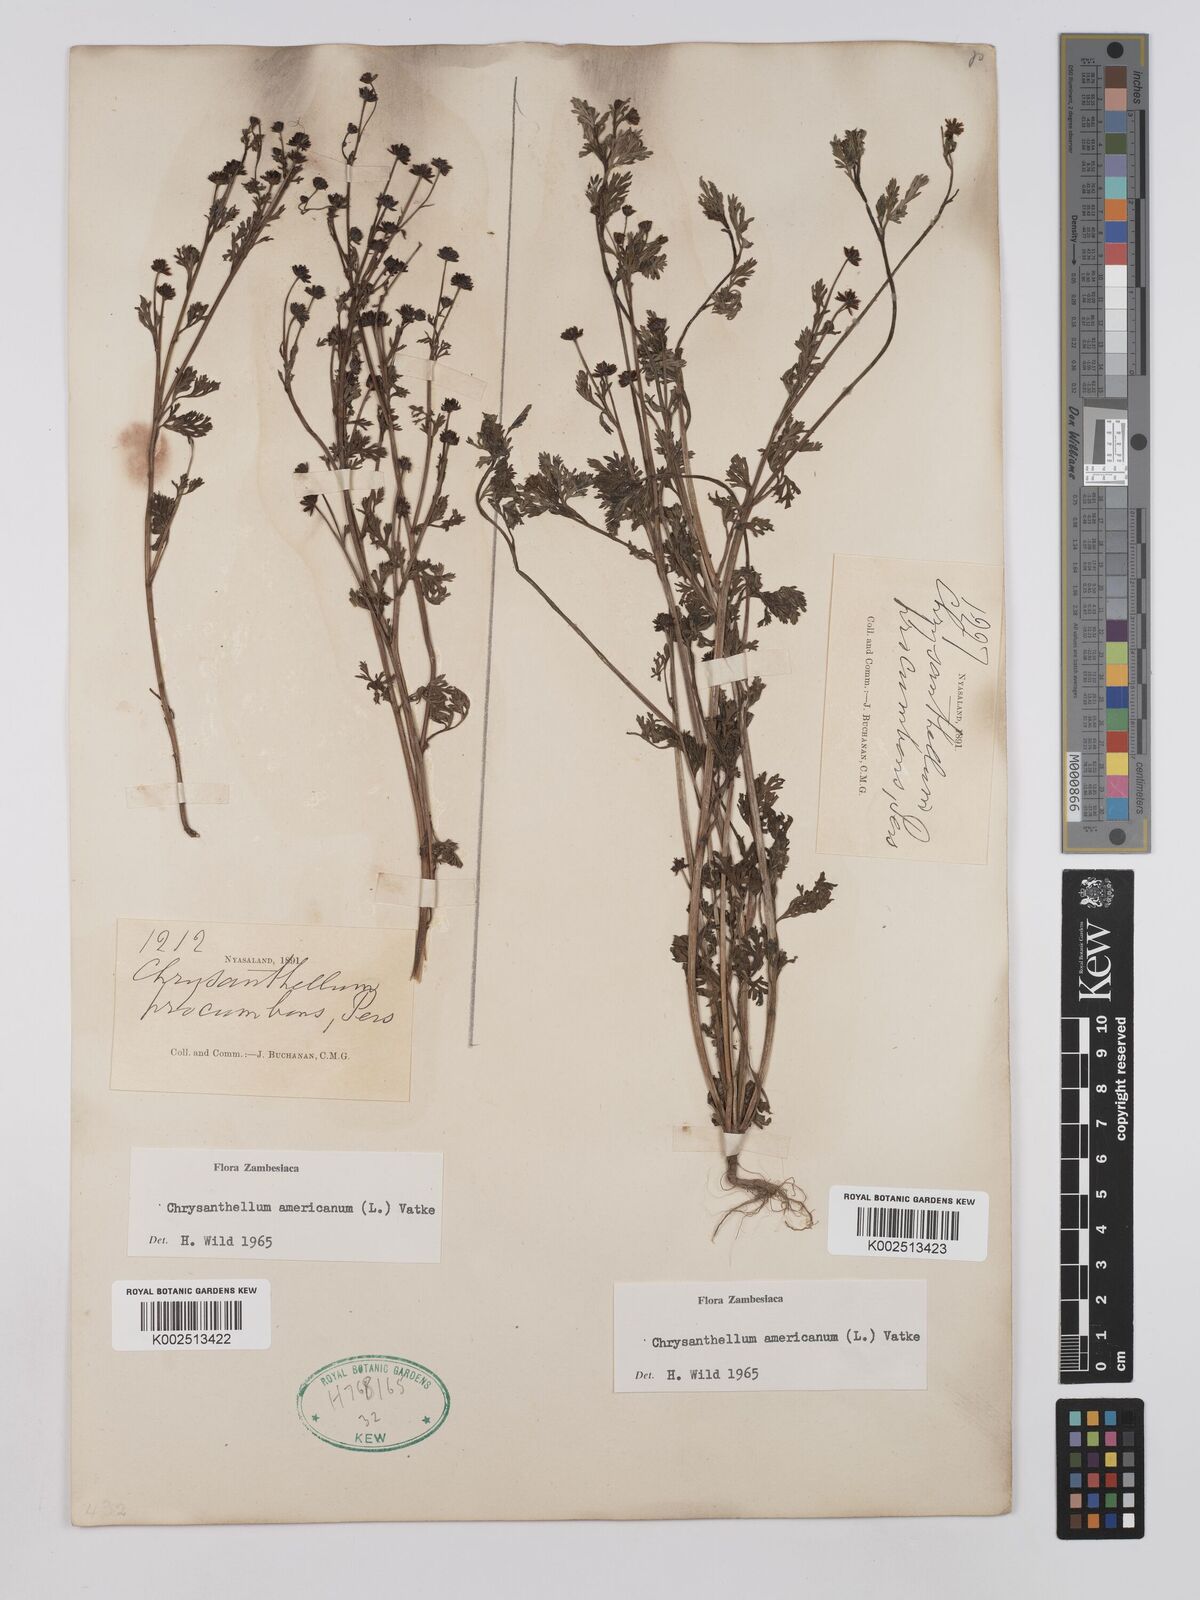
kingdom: Plantae
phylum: Tracheophyta
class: Magnoliopsida
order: Asterales
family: Asteraceae
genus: Chrysanthellum
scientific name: Chrysanthellum indicum
